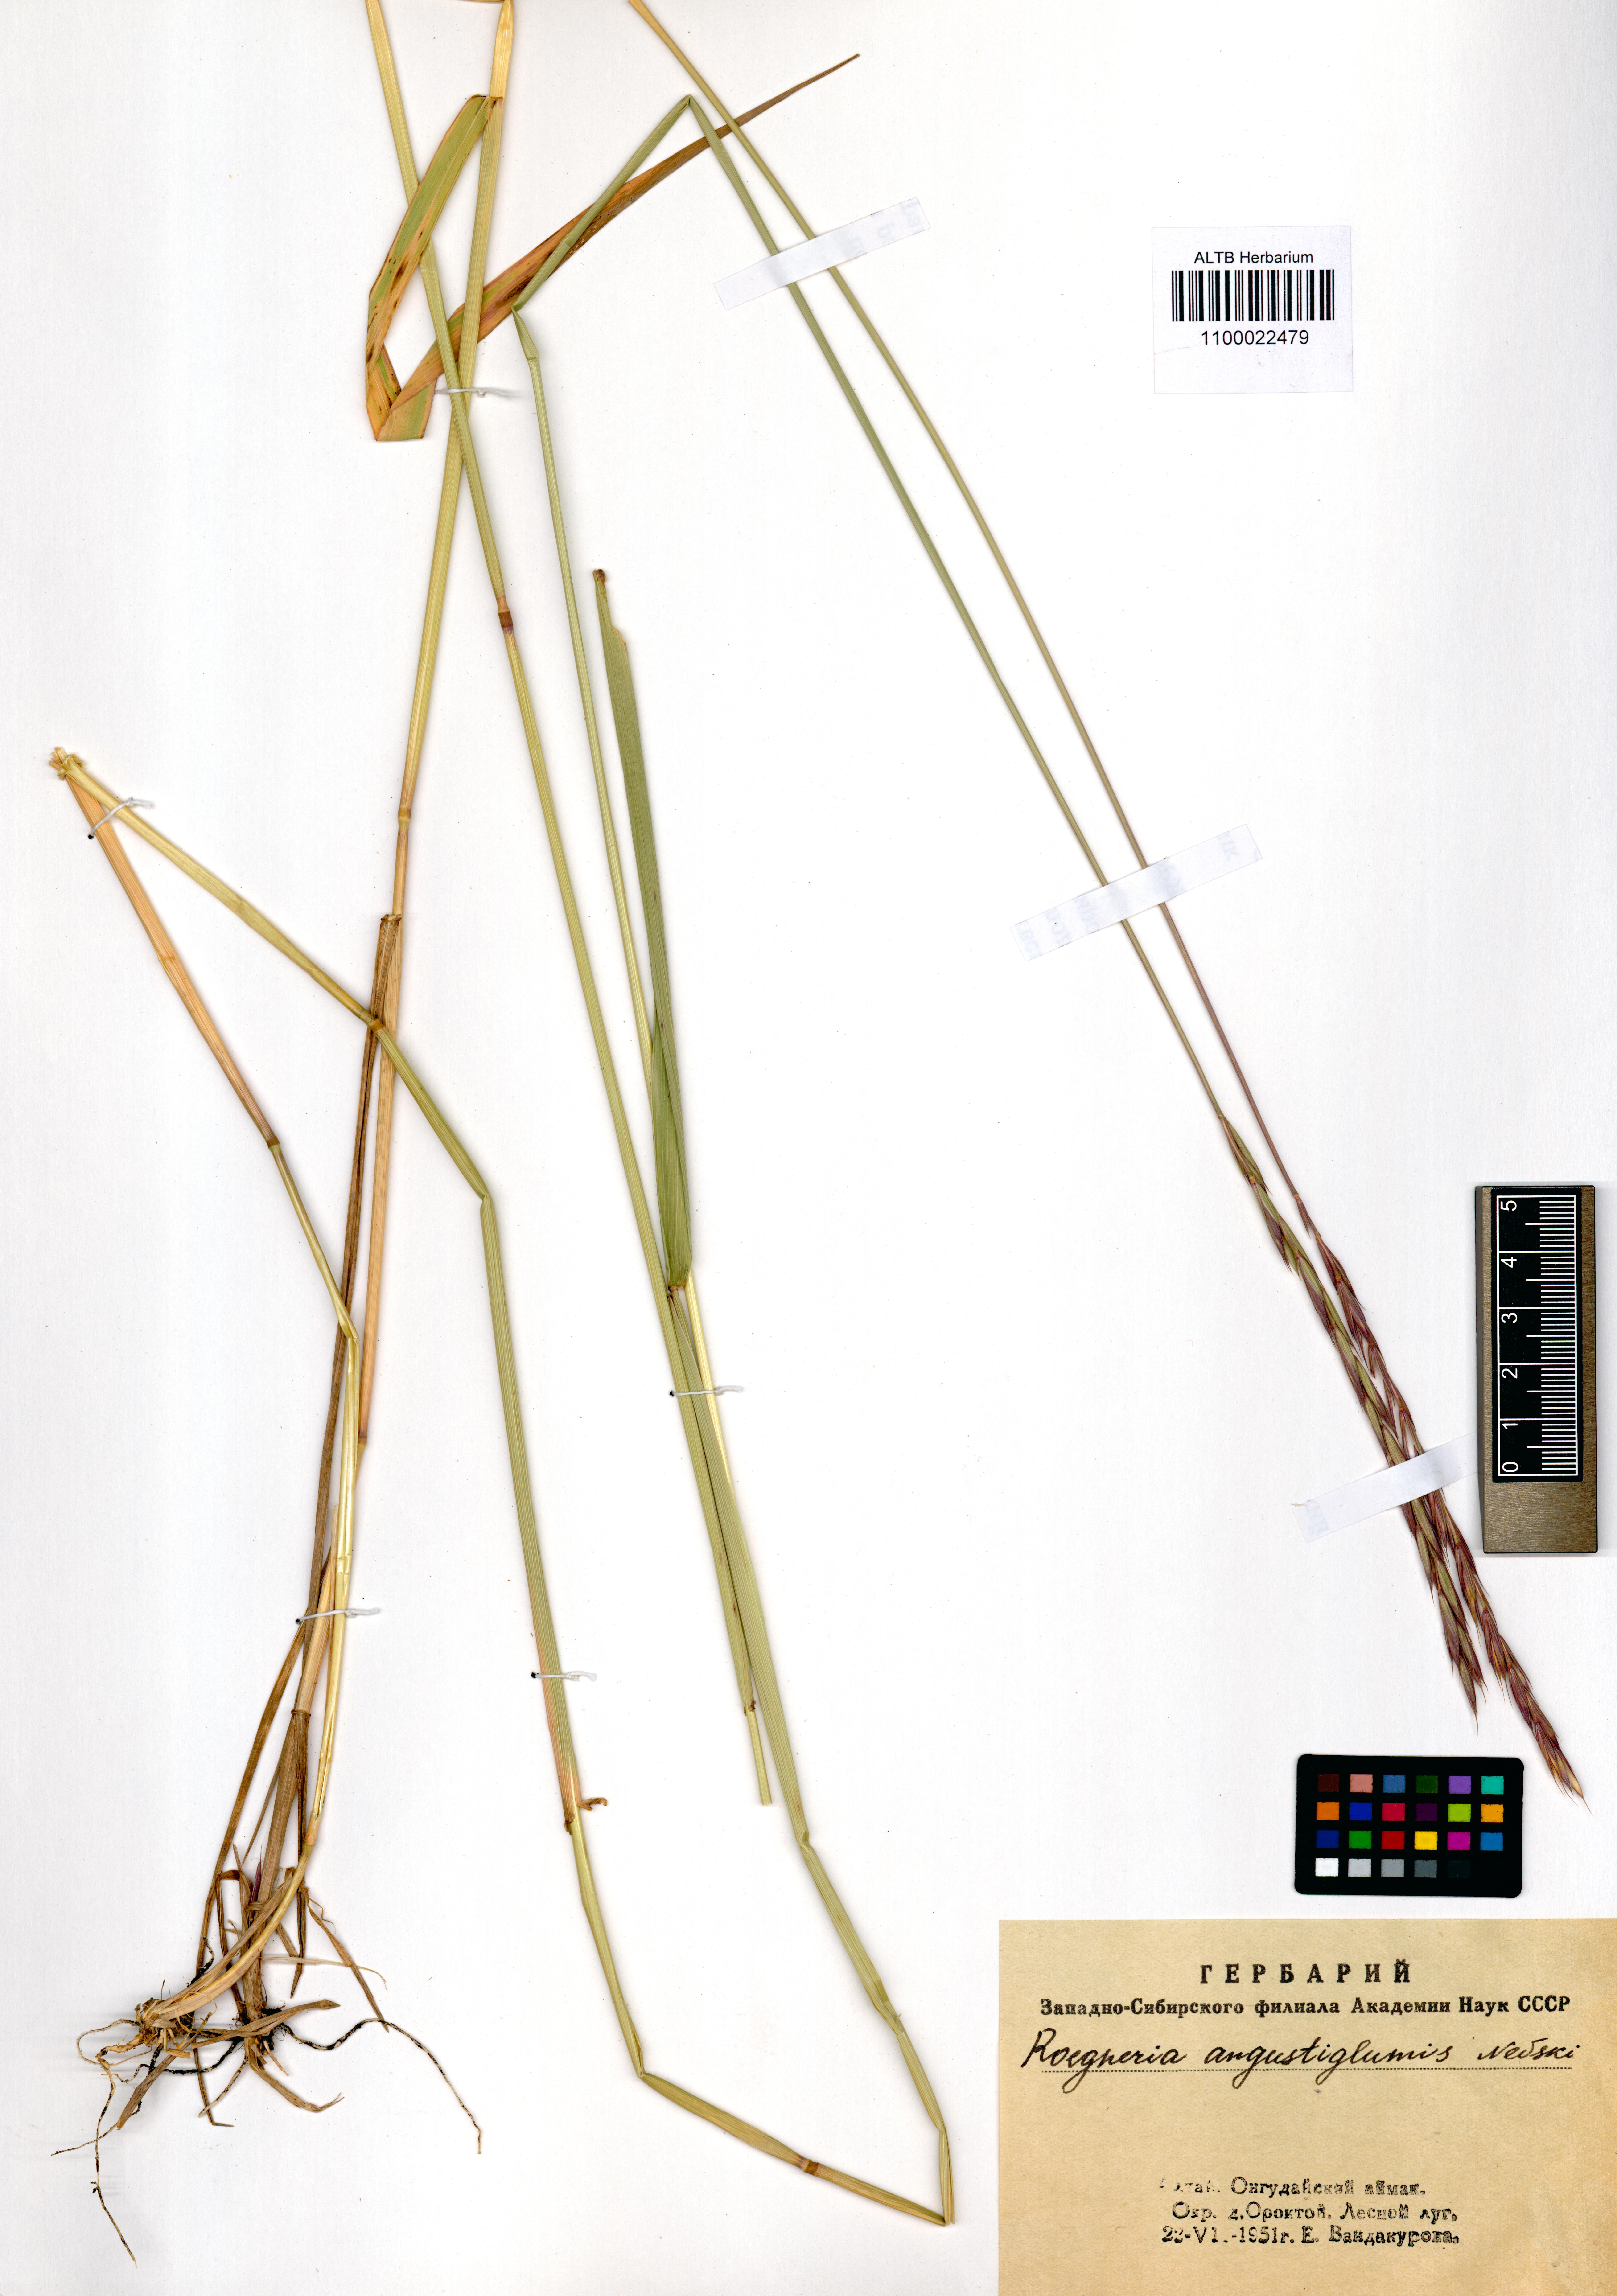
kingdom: Plantae
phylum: Tracheophyta
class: Magnoliopsida
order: Ericales
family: Primulaceae
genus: Primula
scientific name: Primula veris
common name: Cowslip
